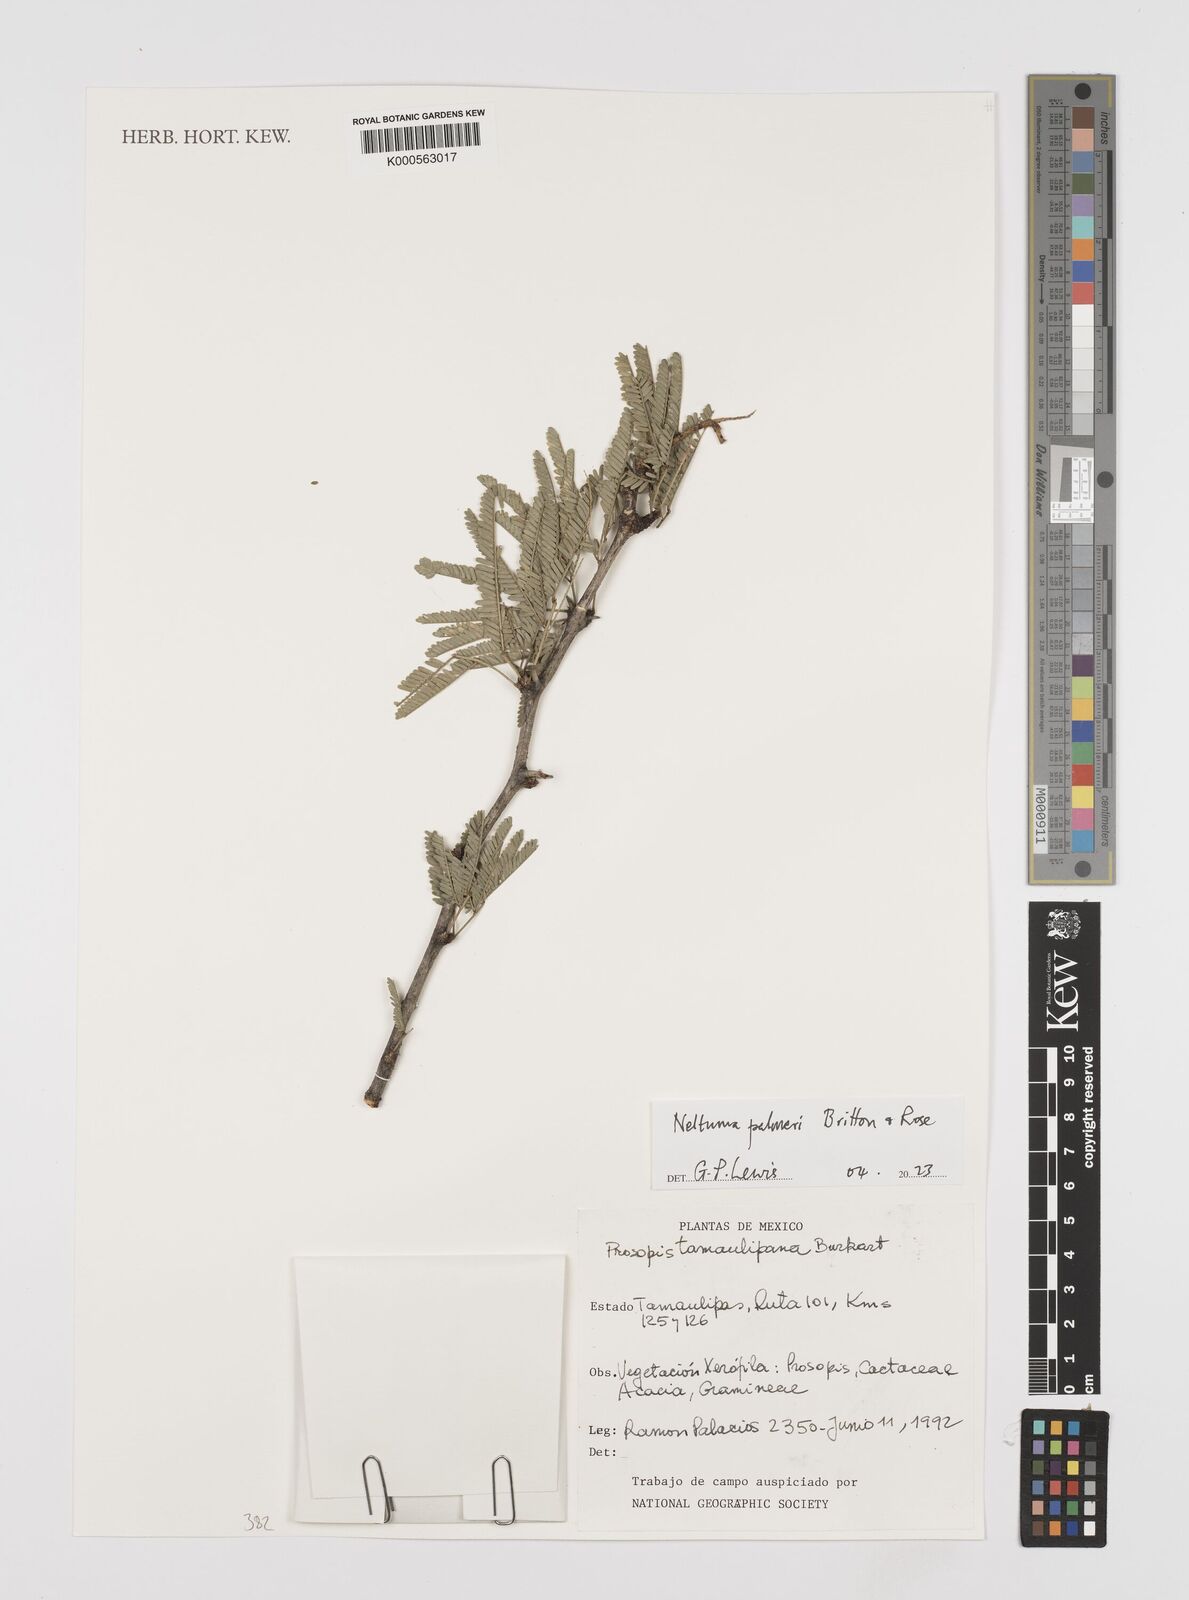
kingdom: Plantae
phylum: Tracheophyta
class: Magnoliopsida
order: Fabales
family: Fabaceae
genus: Prosopis
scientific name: Prosopis tamaulipana
